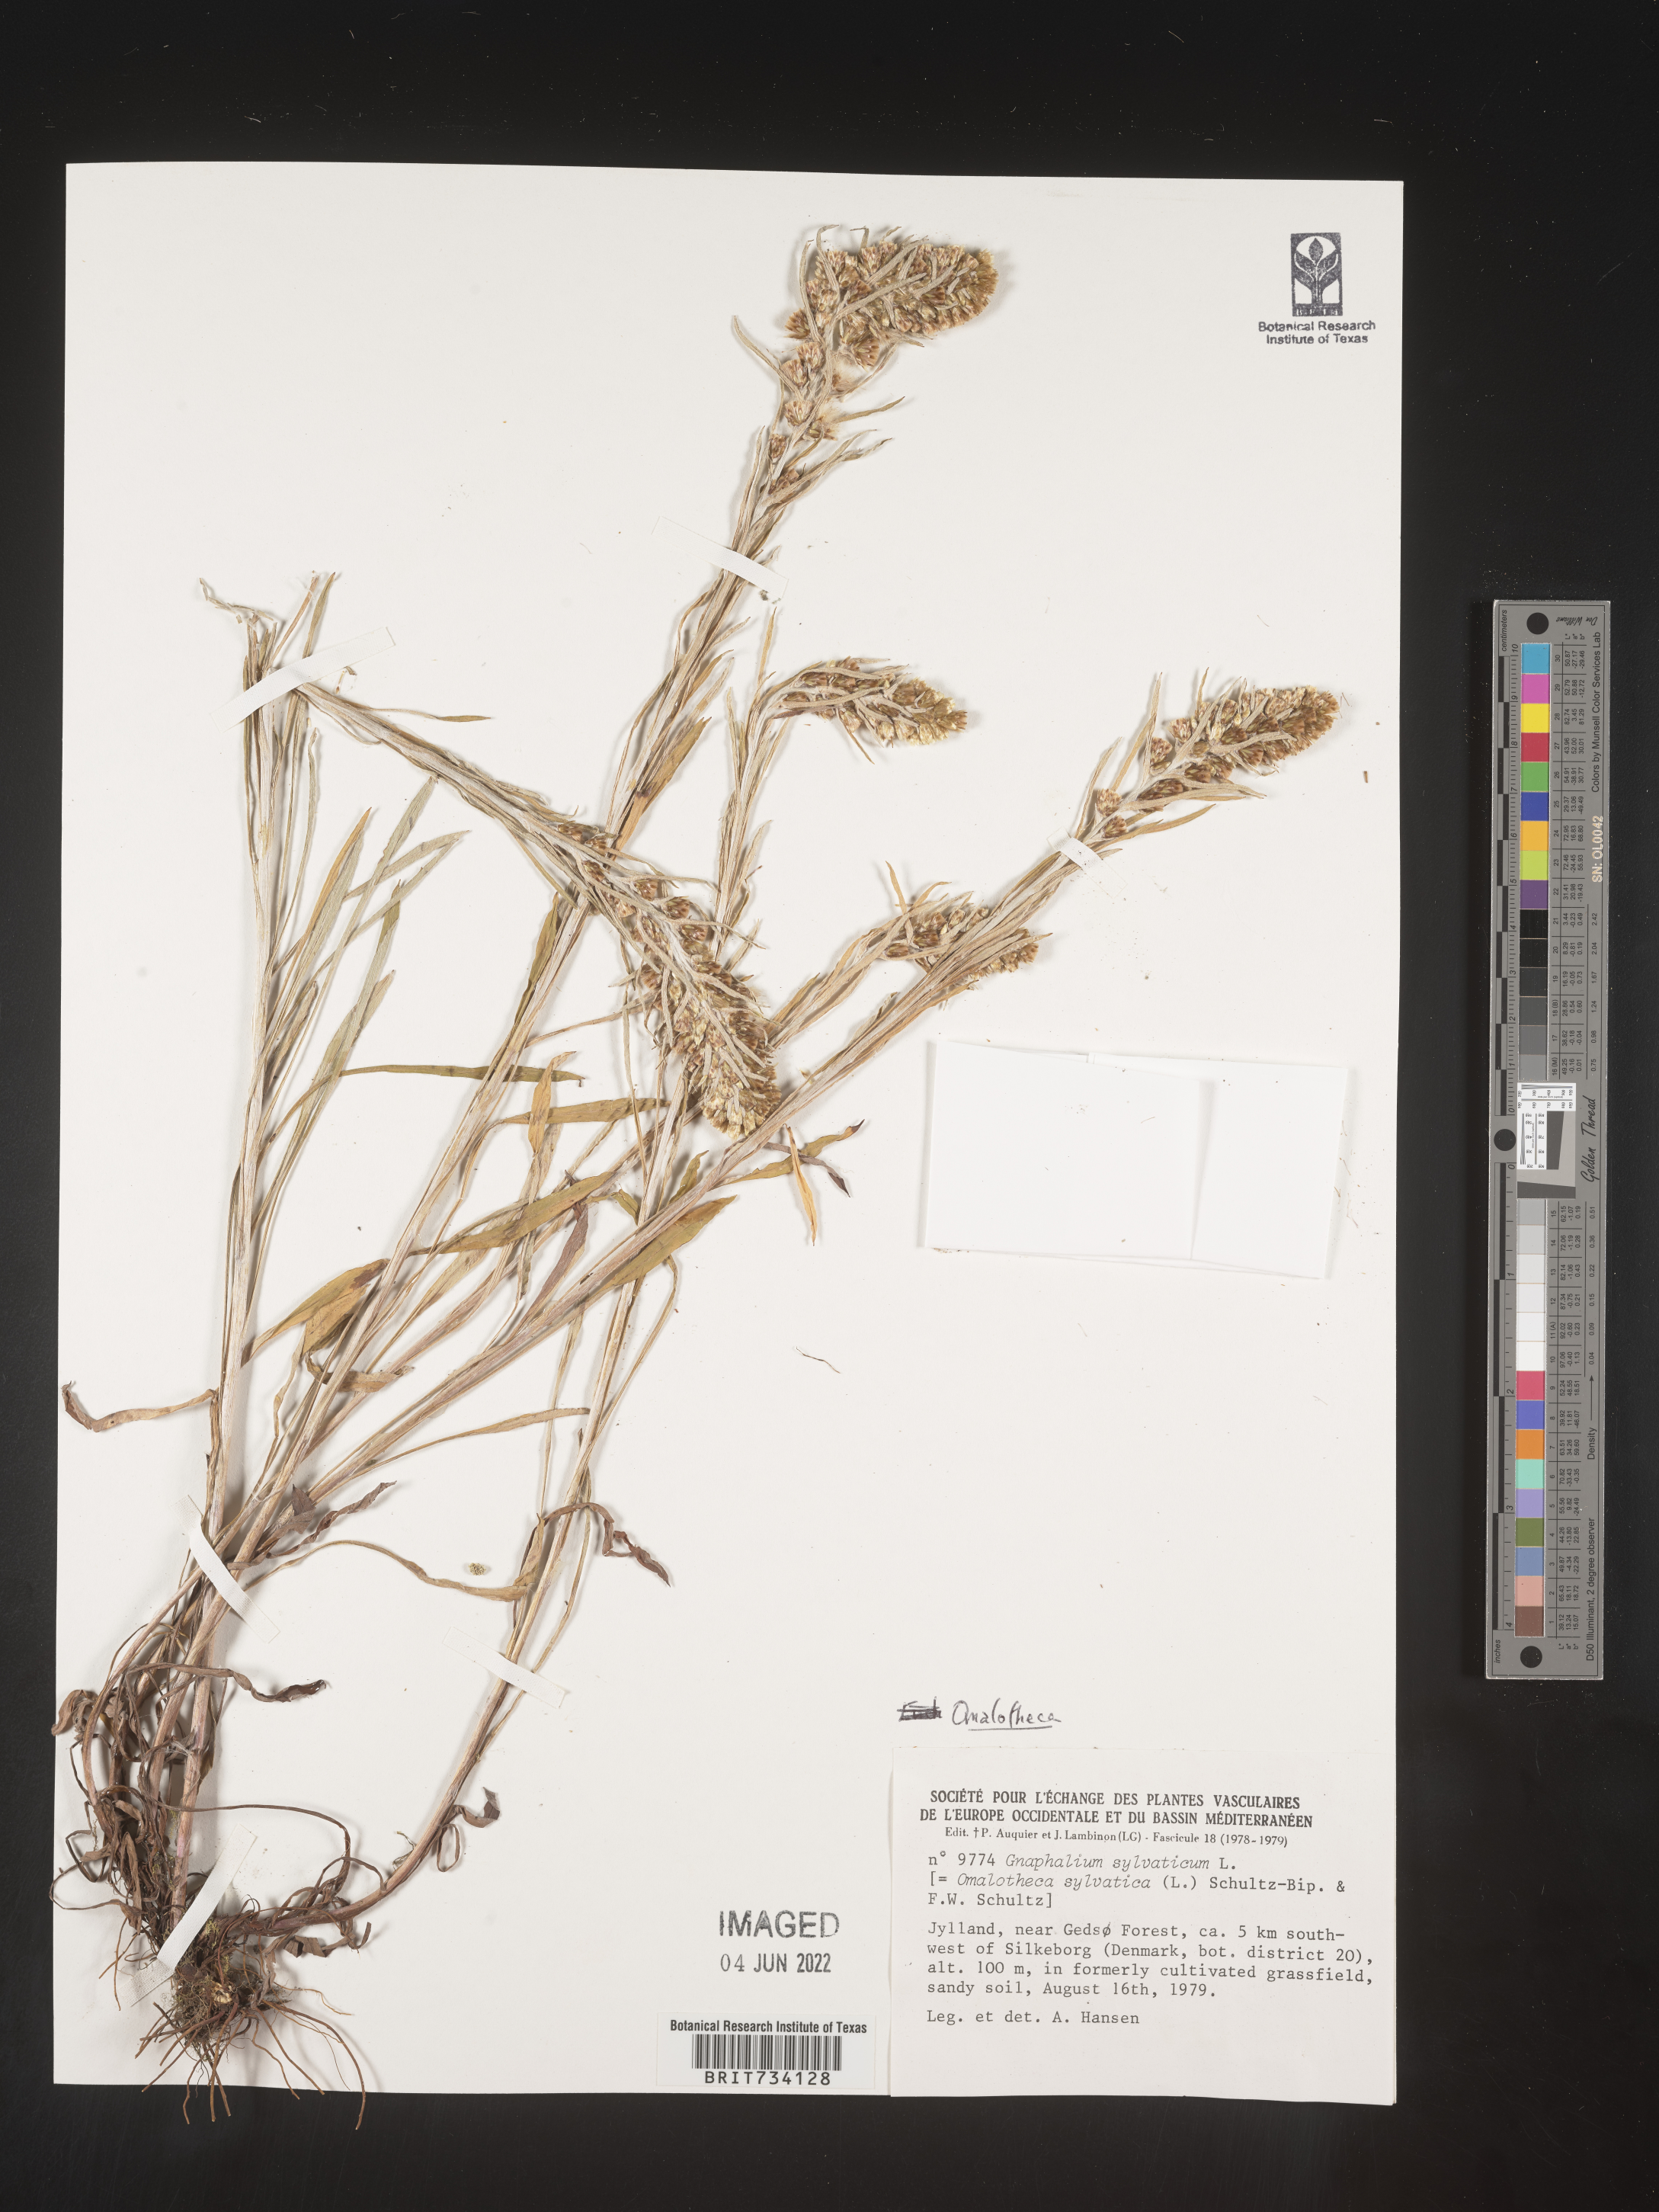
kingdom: Plantae
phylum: Tracheophyta
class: Magnoliopsida
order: Asterales
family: Asteraceae
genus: Omalotheca
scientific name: Omalotheca sylvatica
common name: Heath cudweed
